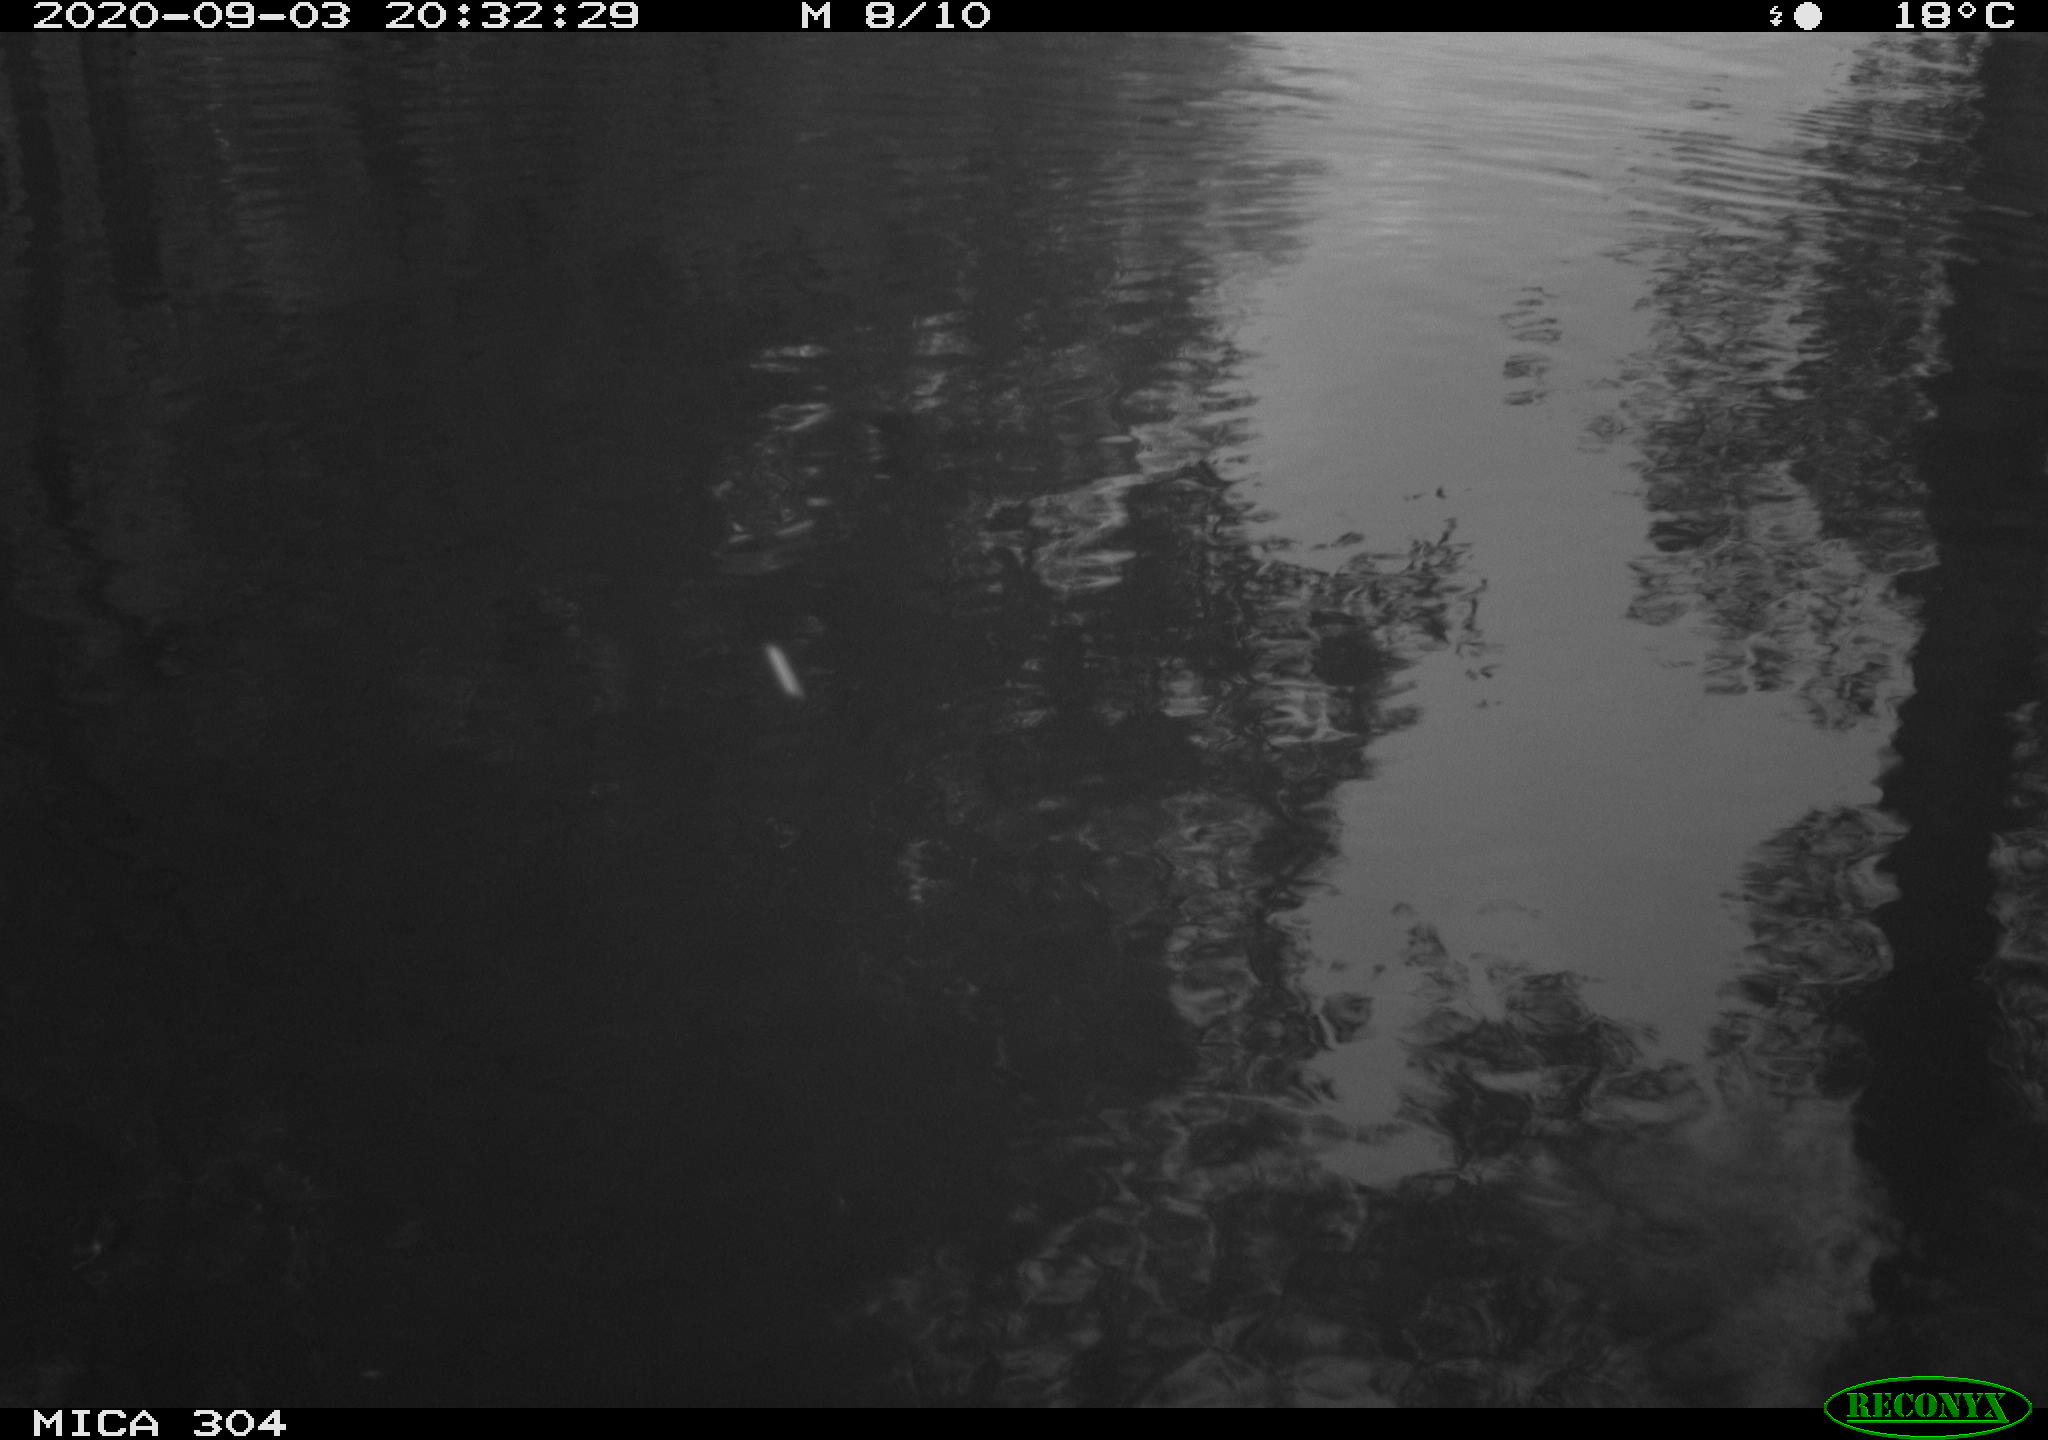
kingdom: Animalia
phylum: Chordata
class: Aves
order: Gruiformes
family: Rallidae
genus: Gallinula
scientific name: Gallinula chloropus
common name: Common moorhen
